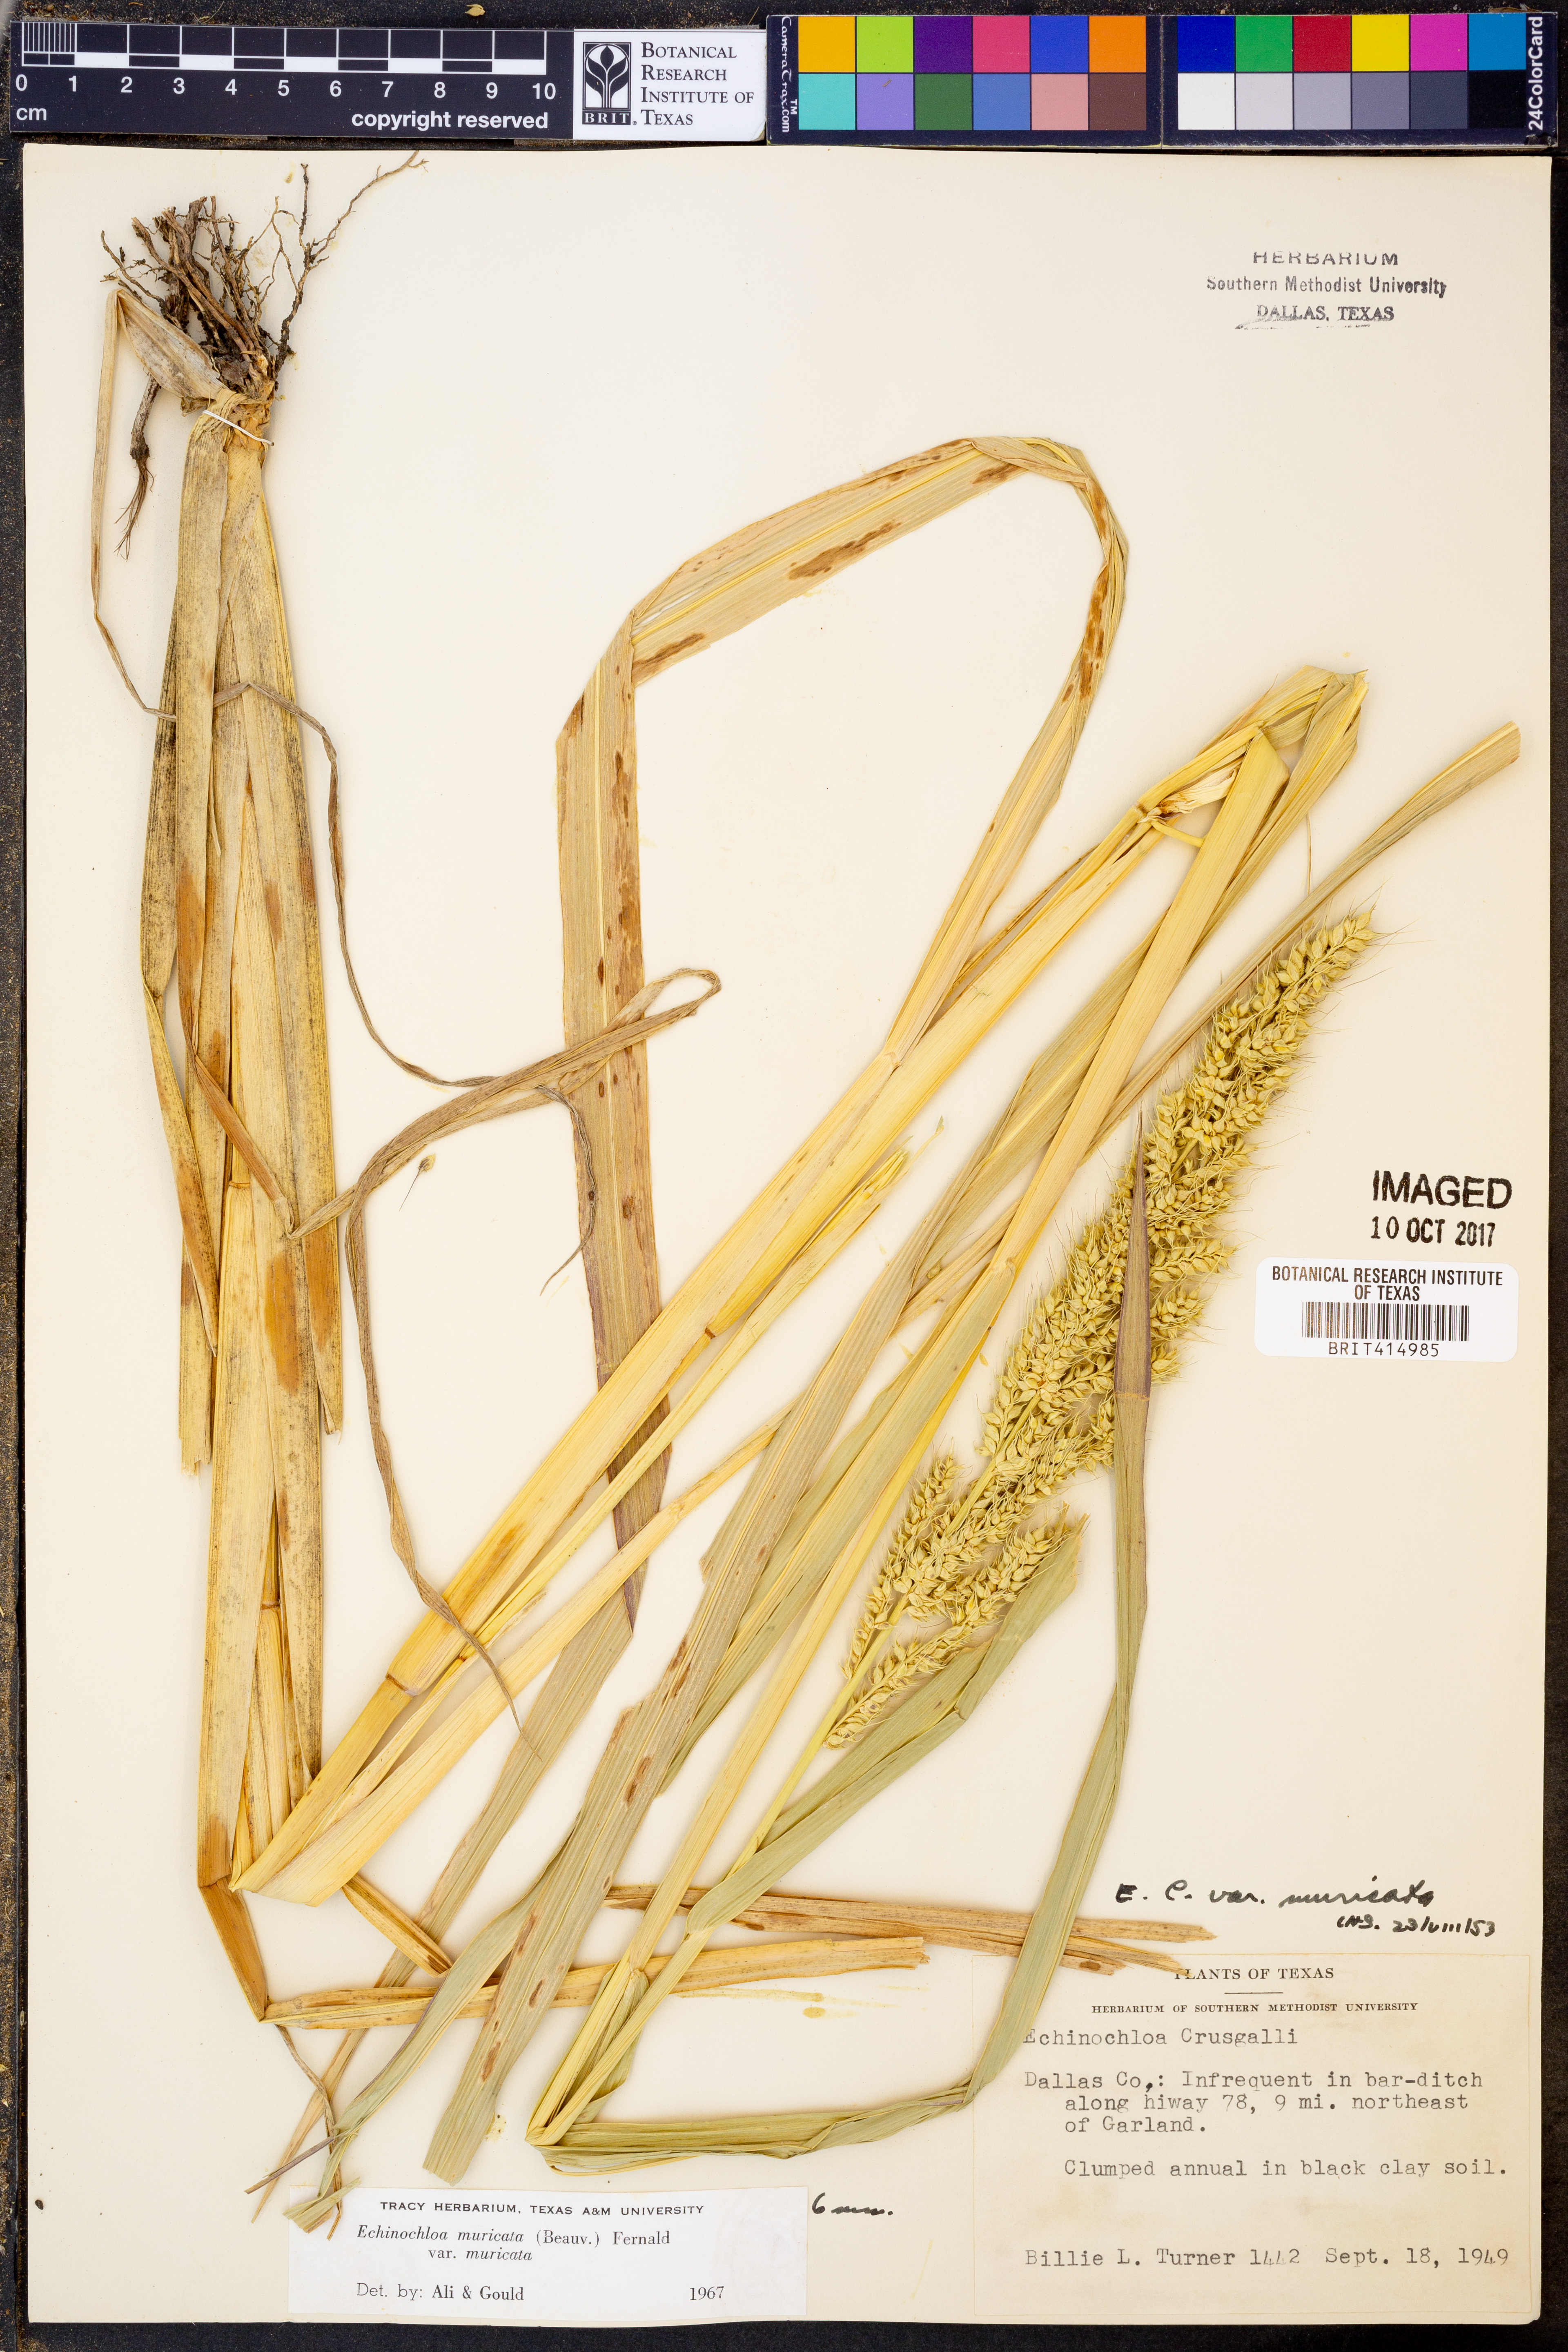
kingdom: Plantae
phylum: Tracheophyta
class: Liliopsida
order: Poales
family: Poaceae
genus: Echinochloa
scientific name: Echinochloa muricata
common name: American barnyard grass
